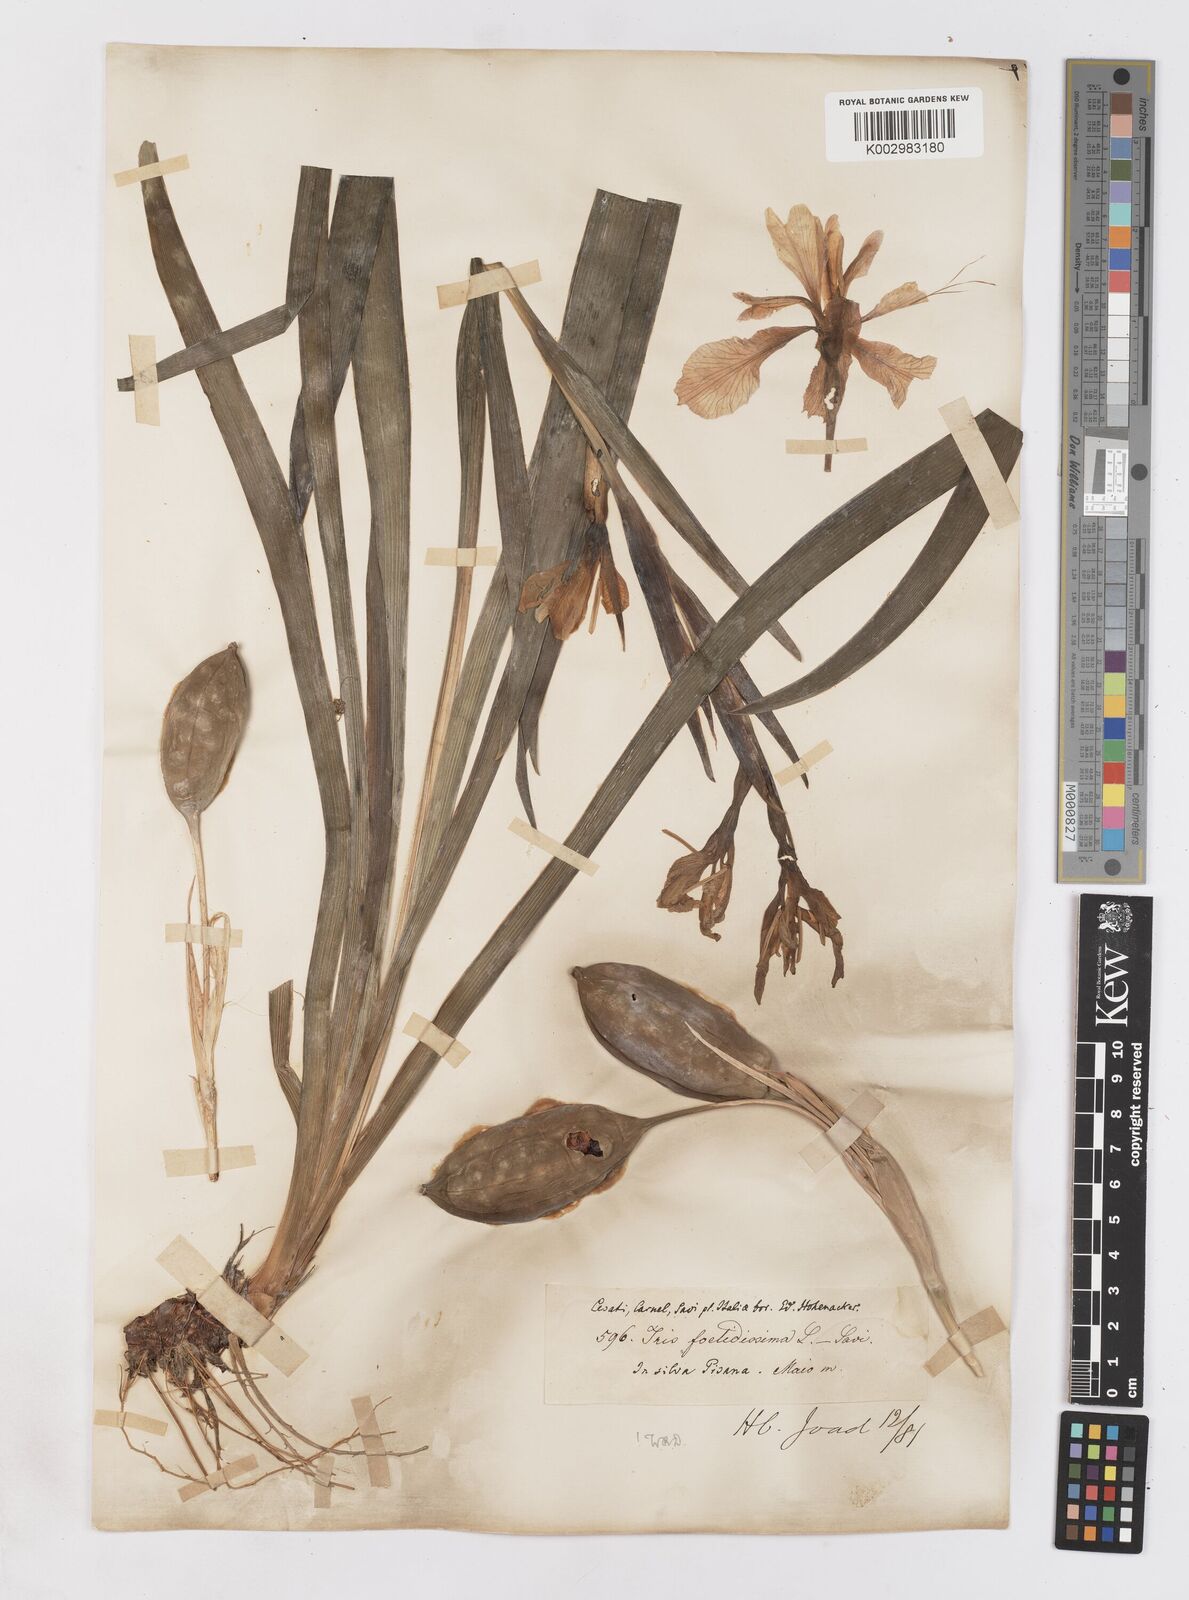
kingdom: Plantae
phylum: Tracheophyta
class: Liliopsida
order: Asparagales
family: Iridaceae
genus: Iris
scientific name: Iris foetidissima
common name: Stinking iris
